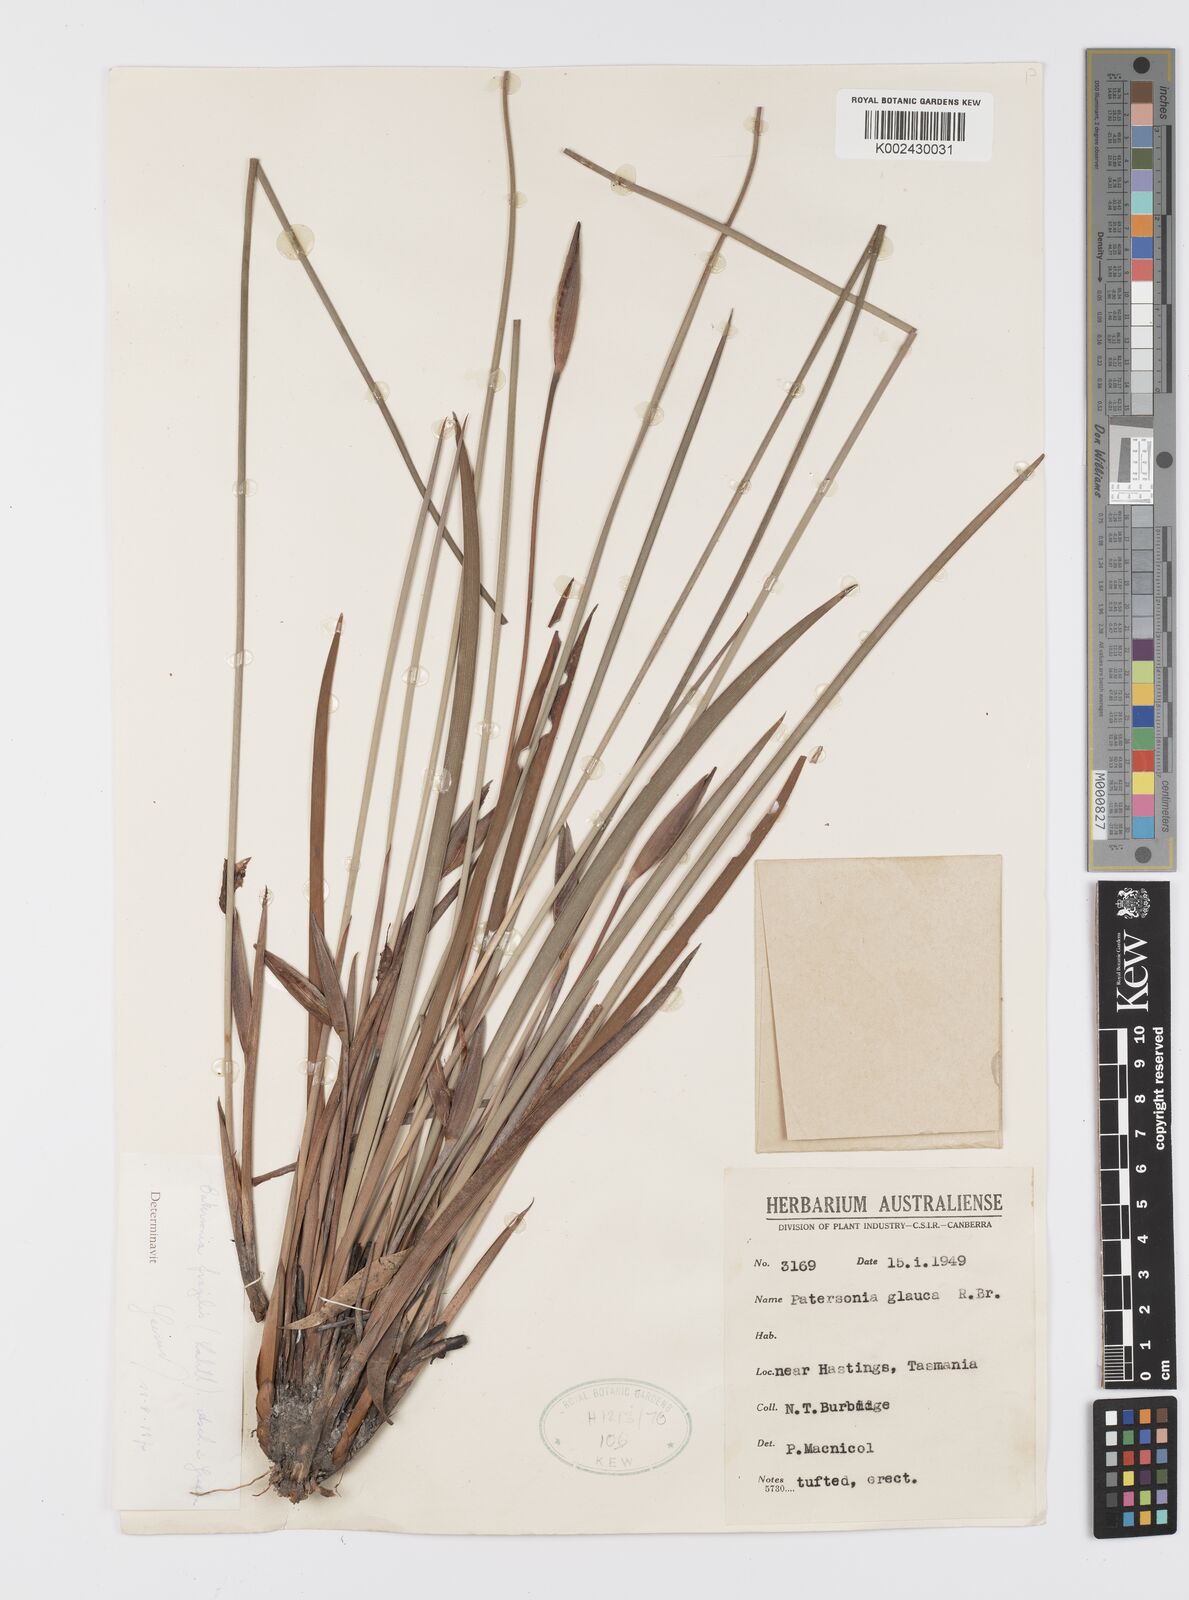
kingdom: Plantae
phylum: Tracheophyta
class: Liliopsida
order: Asparagales
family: Iridaceae
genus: Patersonia
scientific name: Patersonia fragilis
